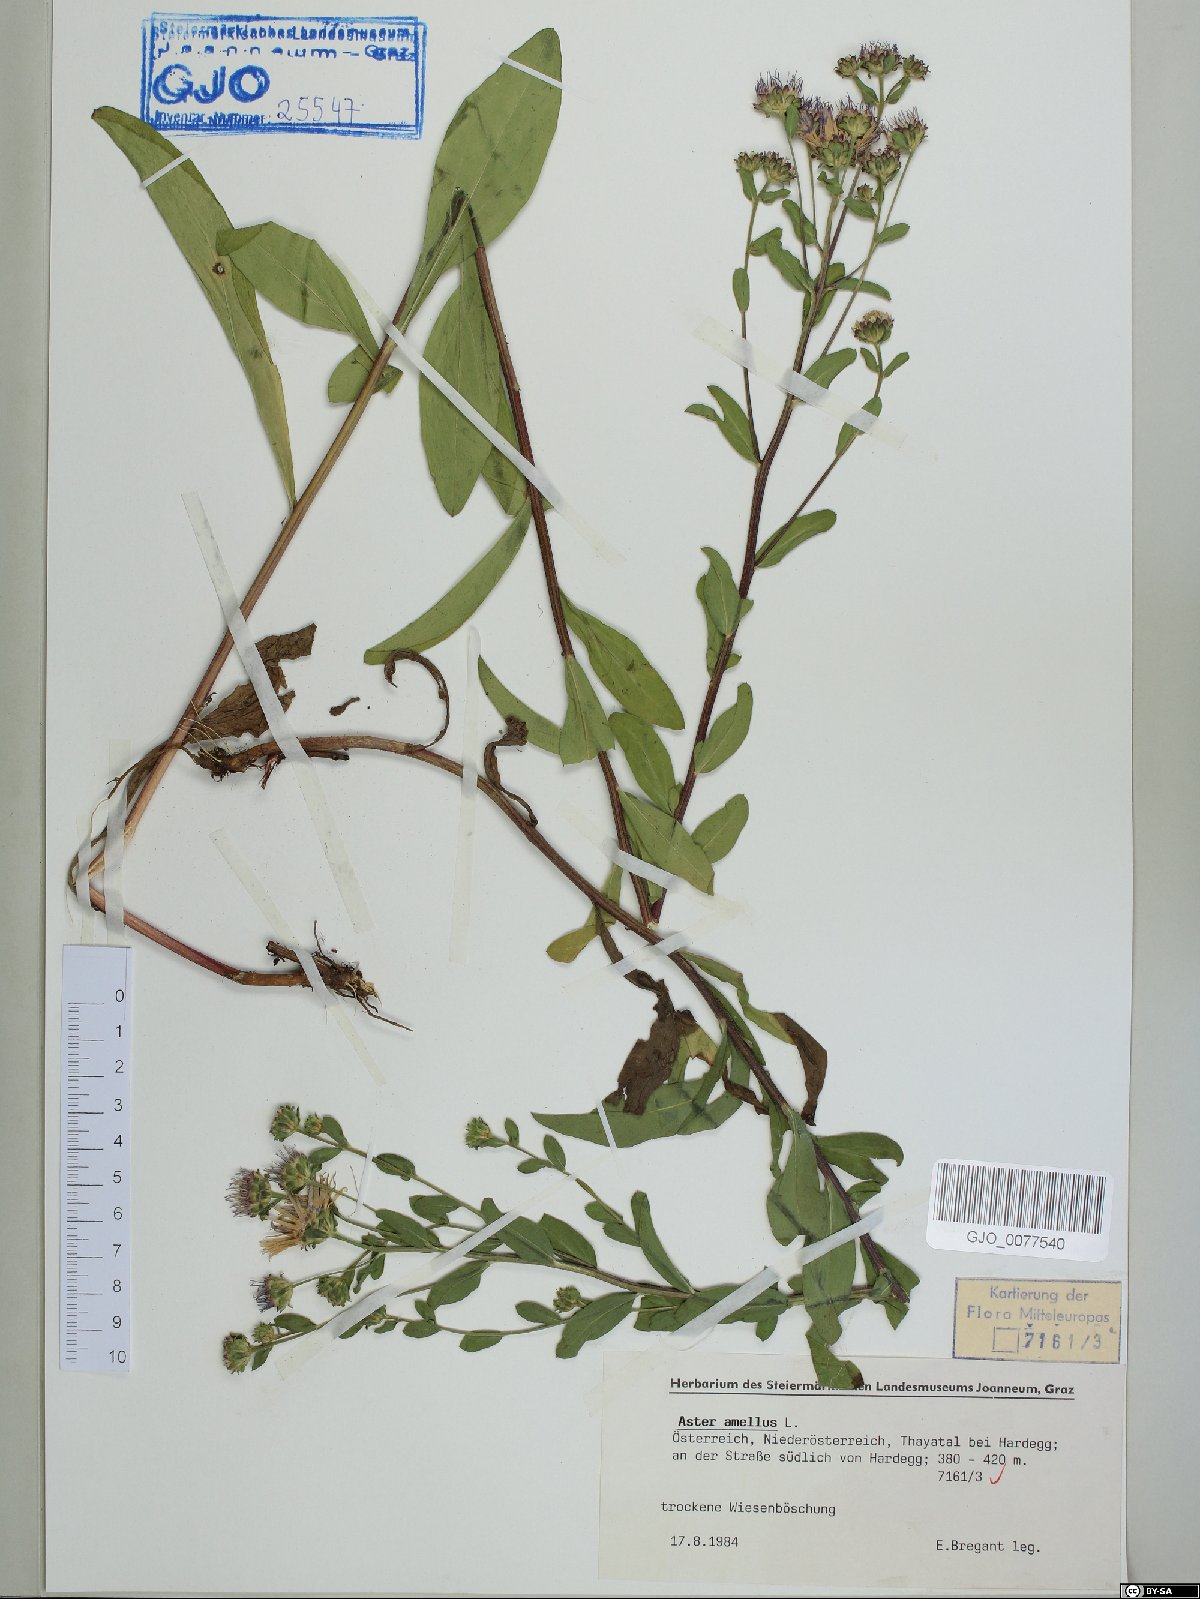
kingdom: Plantae
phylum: Tracheophyta
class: Magnoliopsida
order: Asterales
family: Asteraceae
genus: Aster
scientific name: Aster amellus
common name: European michaelmas daisy
